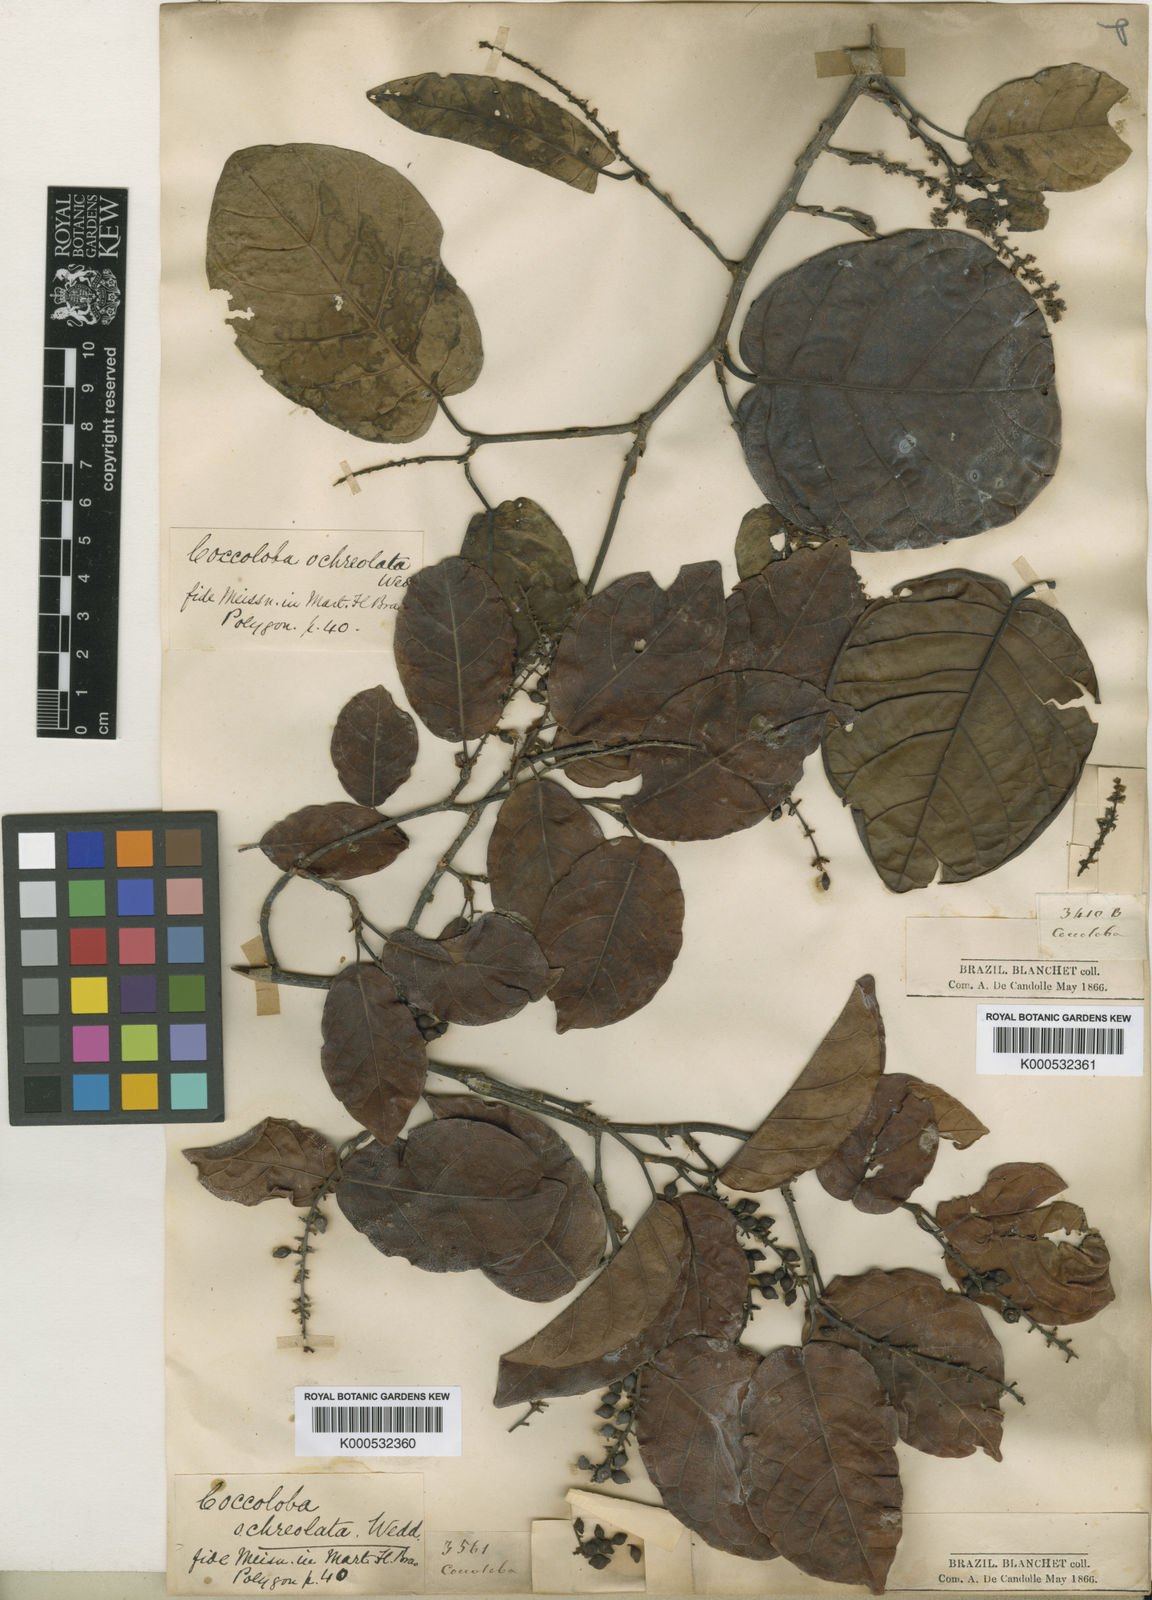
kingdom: Plantae
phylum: Tracheophyta
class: Magnoliopsida
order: Caryophyllales
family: Polygonaceae
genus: Coccoloba
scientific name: Coccoloba ochreolata
